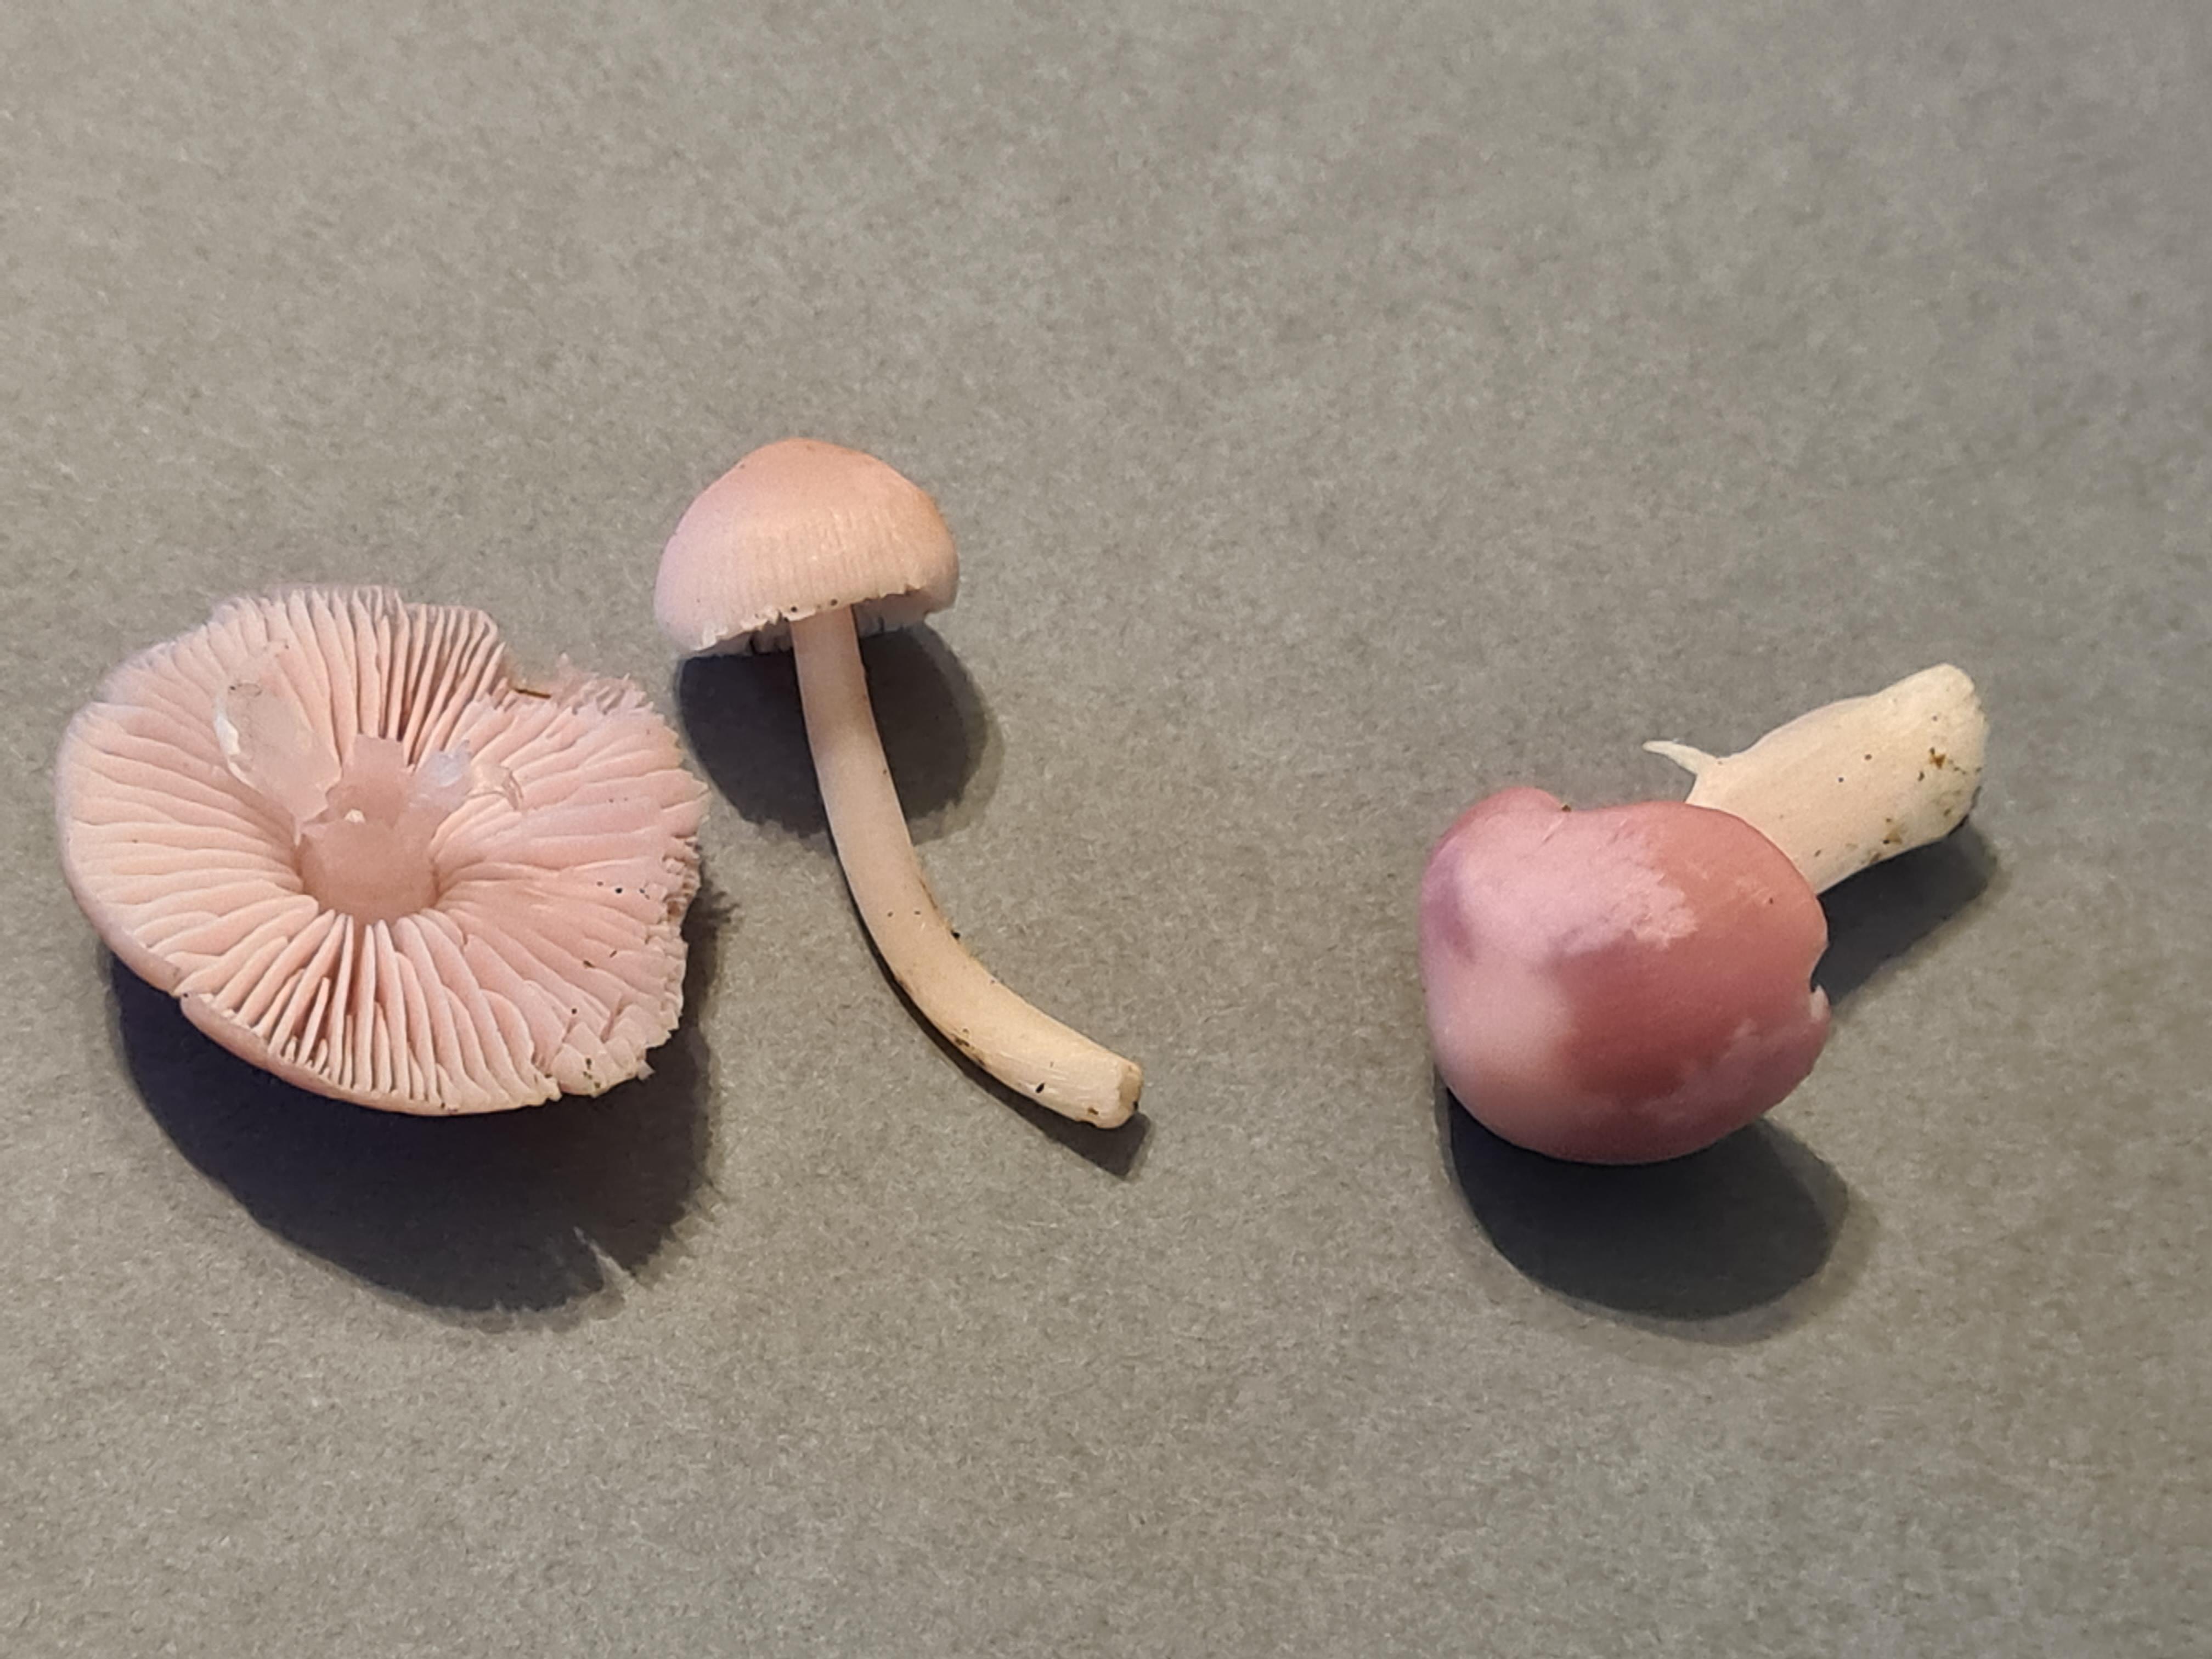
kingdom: Fungi
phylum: Basidiomycota
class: Agaricomycetes
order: Agaricales
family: Mycenaceae
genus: Mycena
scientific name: Mycena rosea
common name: rosa huesvamp
